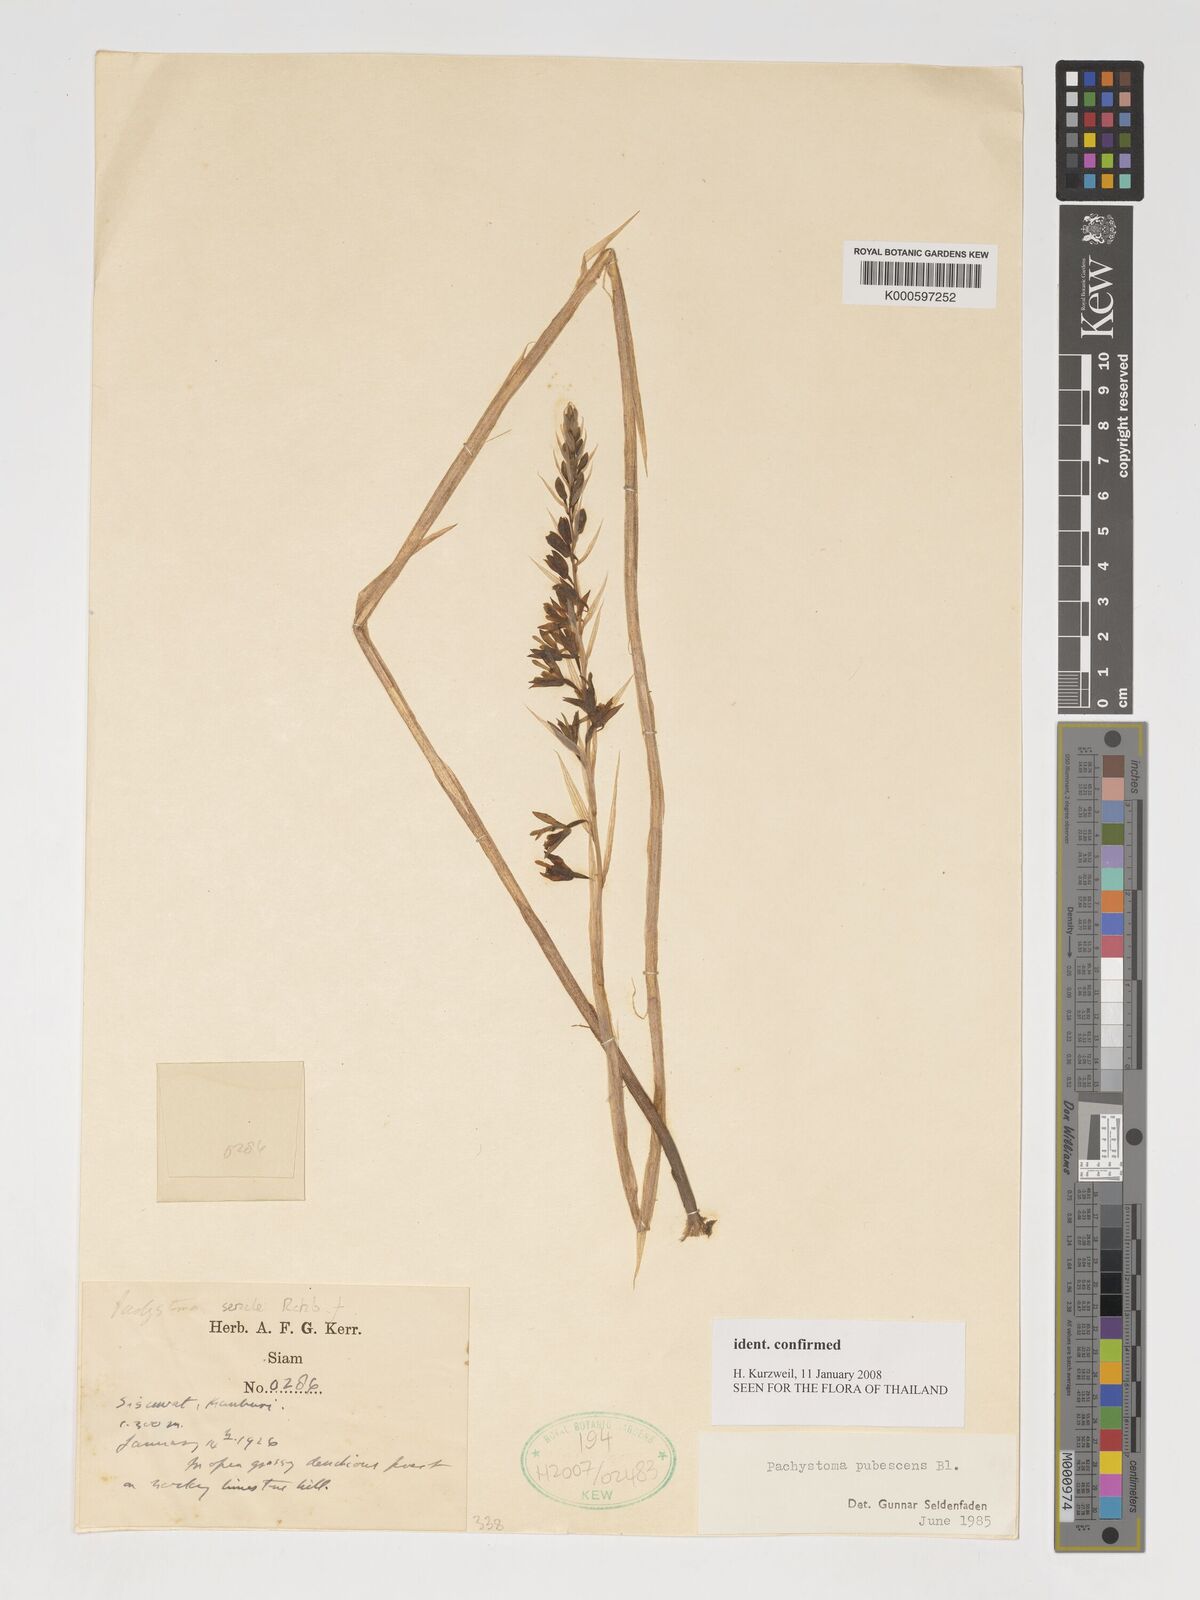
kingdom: Plantae
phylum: Tracheophyta
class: Liliopsida
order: Asparagales
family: Orchidaceae
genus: Pachystoma
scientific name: Pachystoma pubescens
